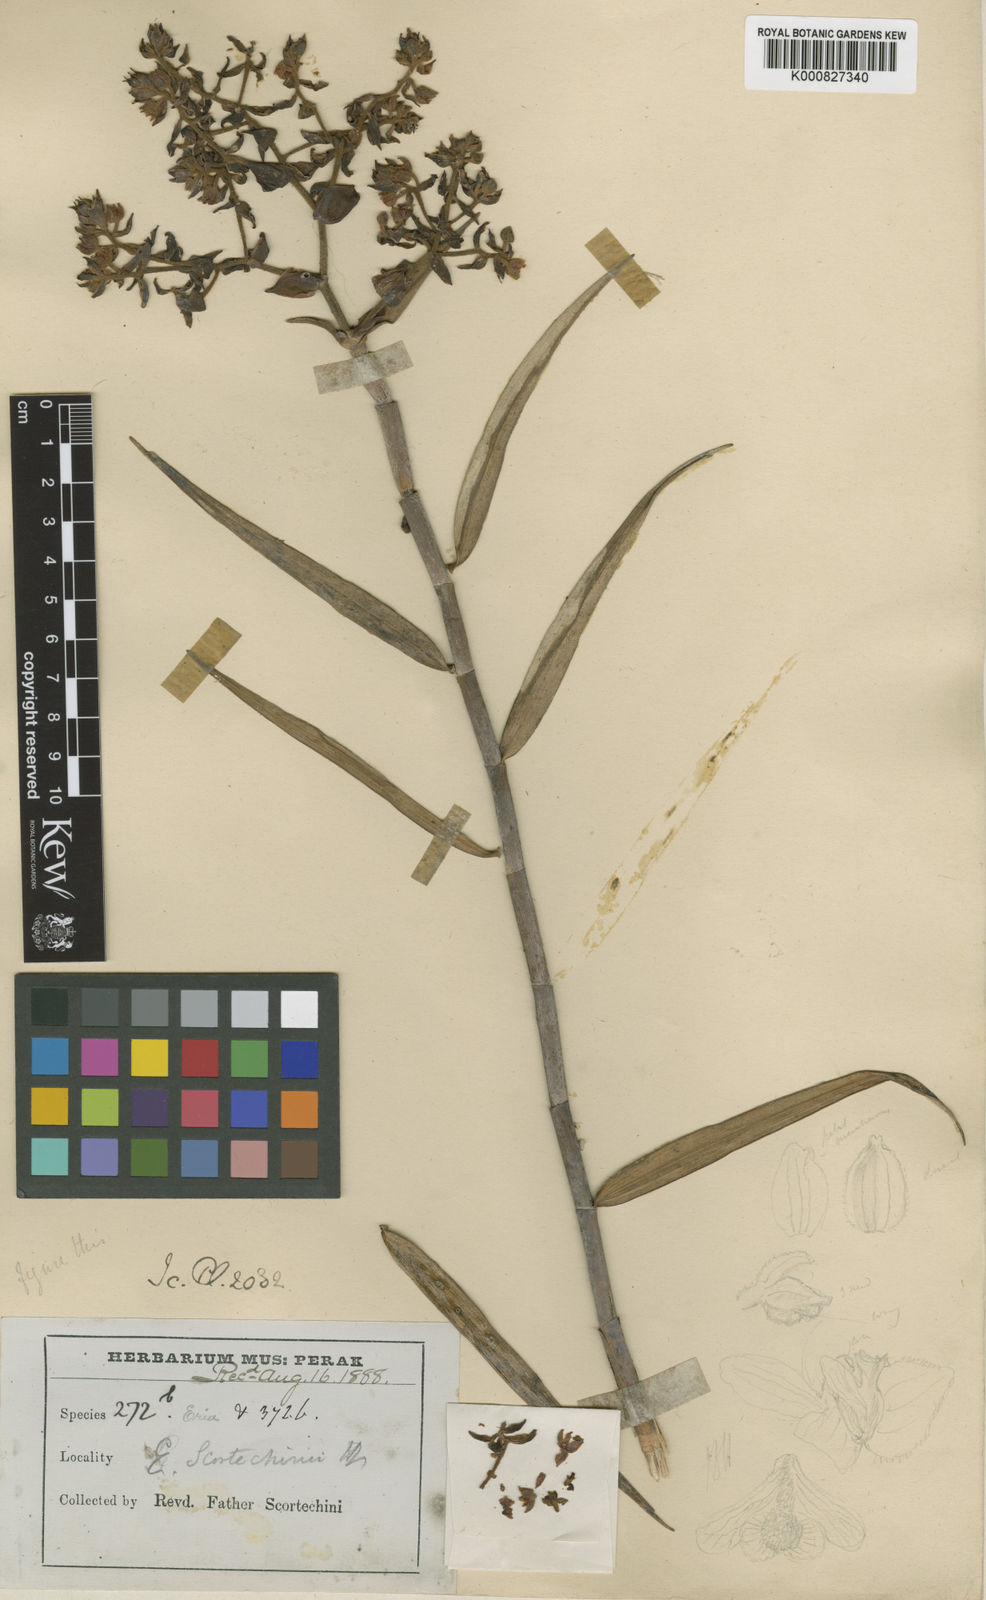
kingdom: Plantae
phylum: Tracheophyta
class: Liliopsida
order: Asparagales
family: Orchidaceae
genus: Dilochiopsis
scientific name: Dilochiopsis scortechinii
